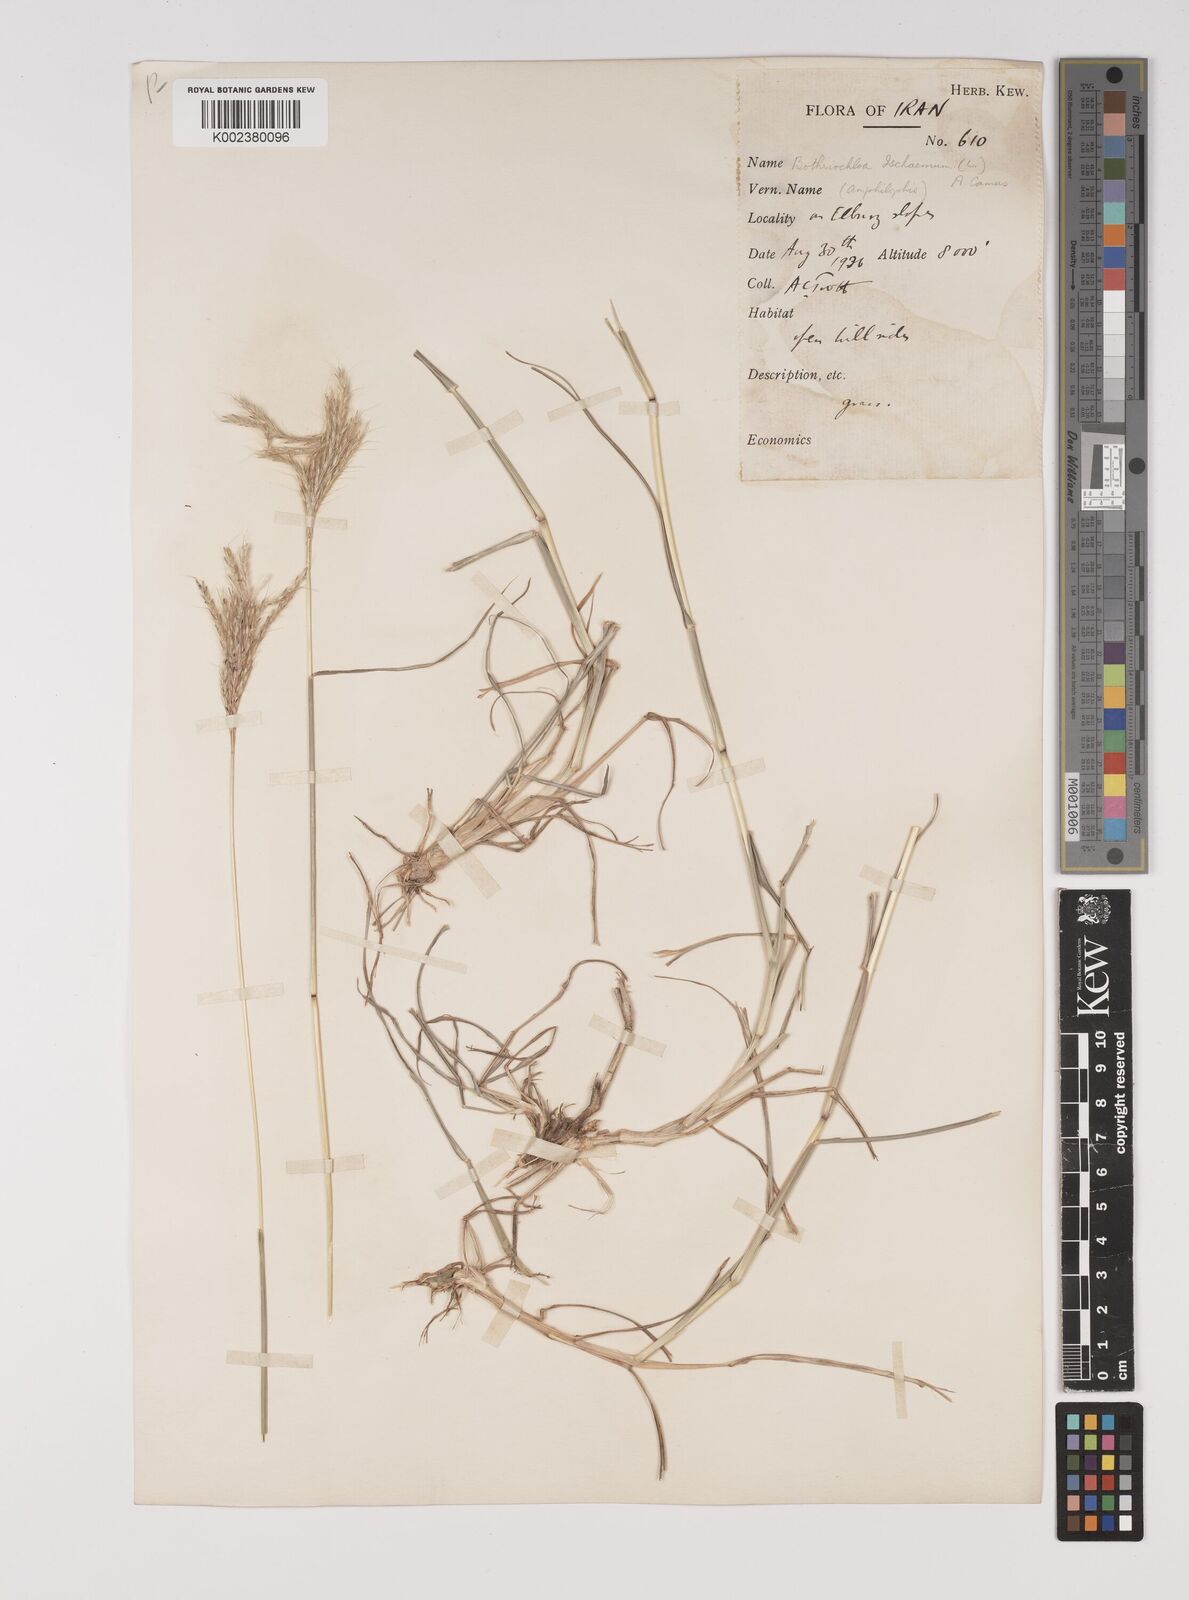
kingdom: Plantae
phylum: Tracheophyta
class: Liliopsida
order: Poales
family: Poaceae
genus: Bothriochloa
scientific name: Bothriochloa ischaemum
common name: Yellow bluestem
